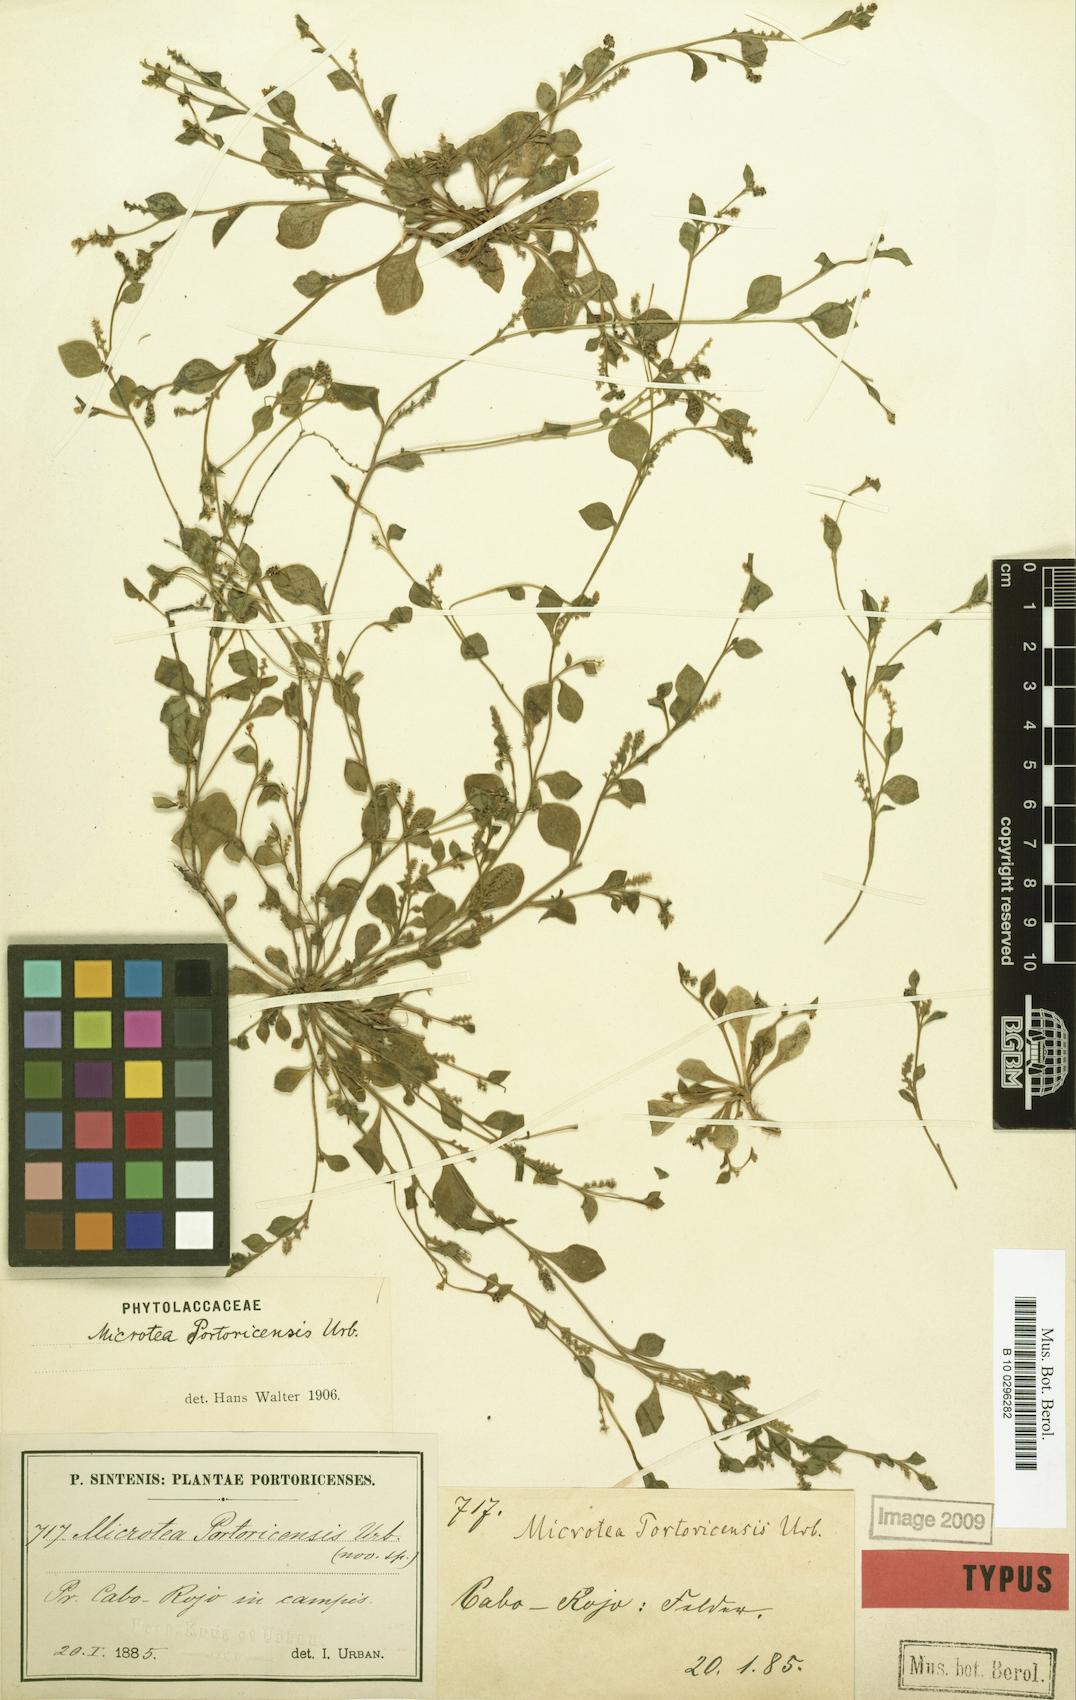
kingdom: Plantae
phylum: Tracheophyta
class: Magnoliopsida
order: Caryophyllales
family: Microteaceae
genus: Microtea
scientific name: Microtea portoricensis
